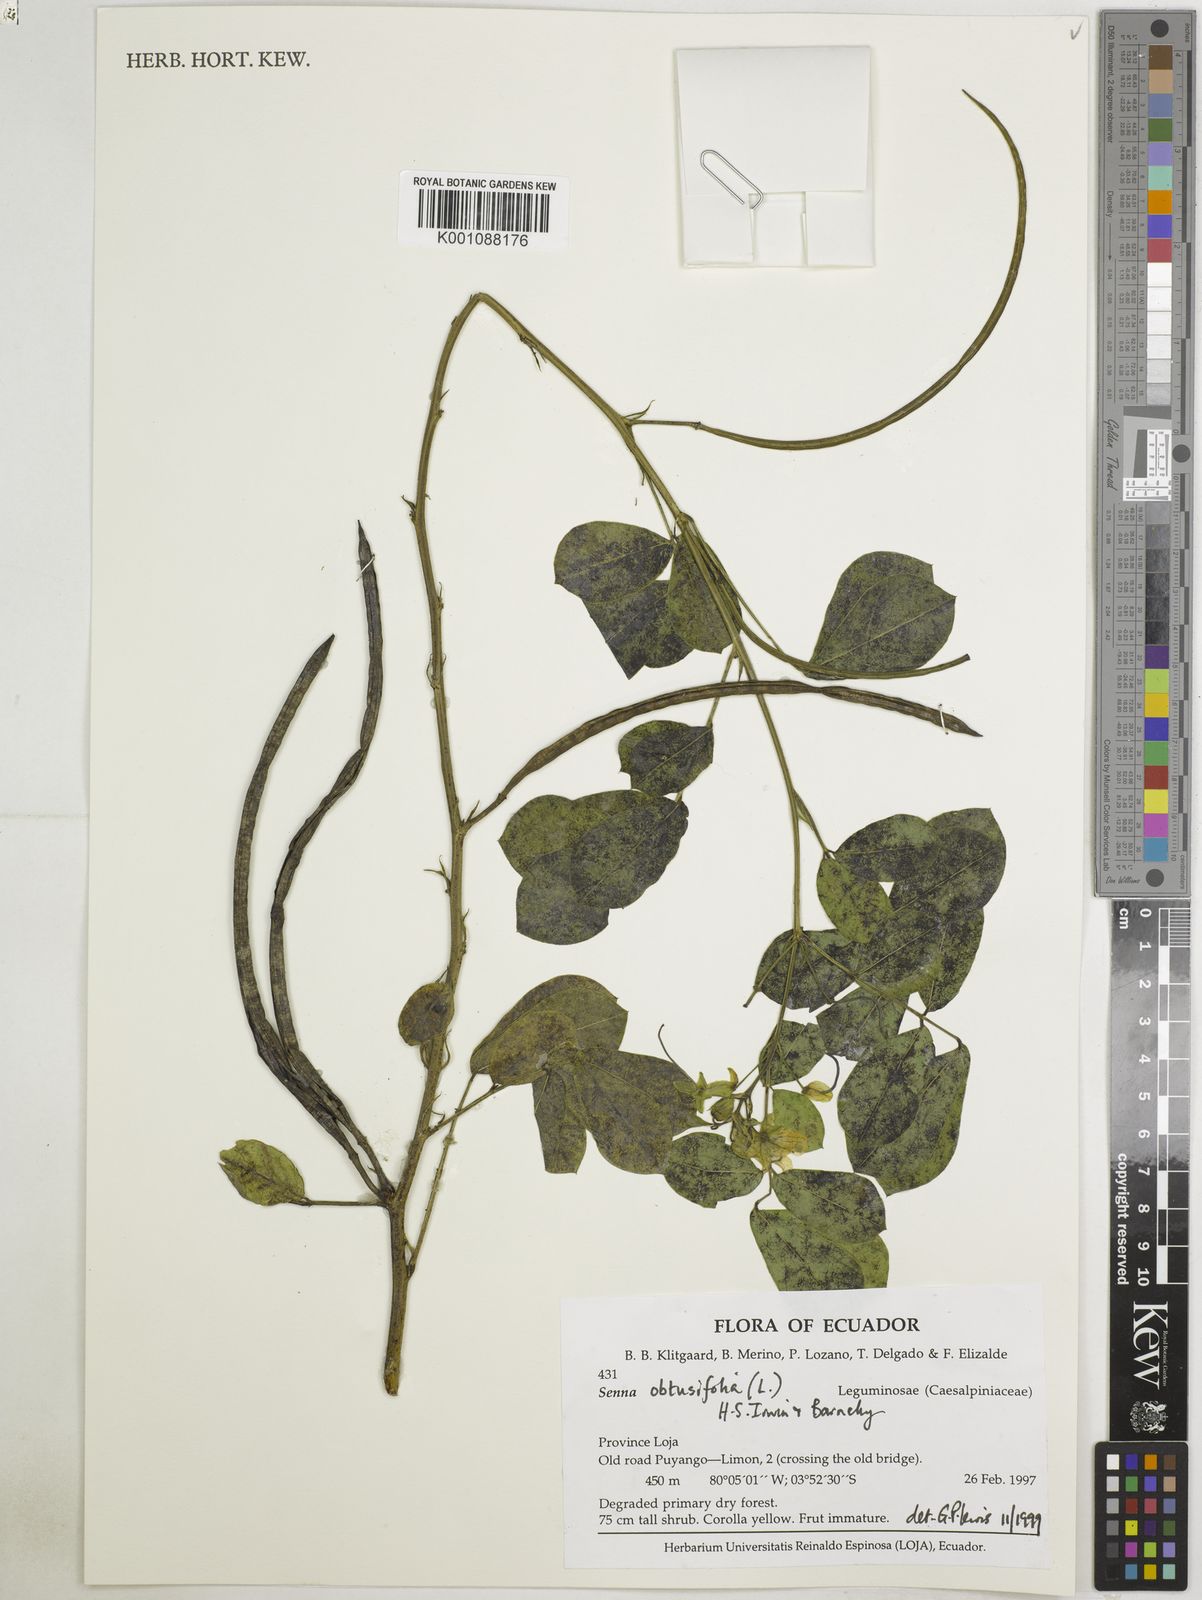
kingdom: Plantae
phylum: Tracheophyta
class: Magnoliopsida
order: Fabales
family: Fabaceae
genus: Senna
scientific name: Senna obtusifolia
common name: Java-bean
